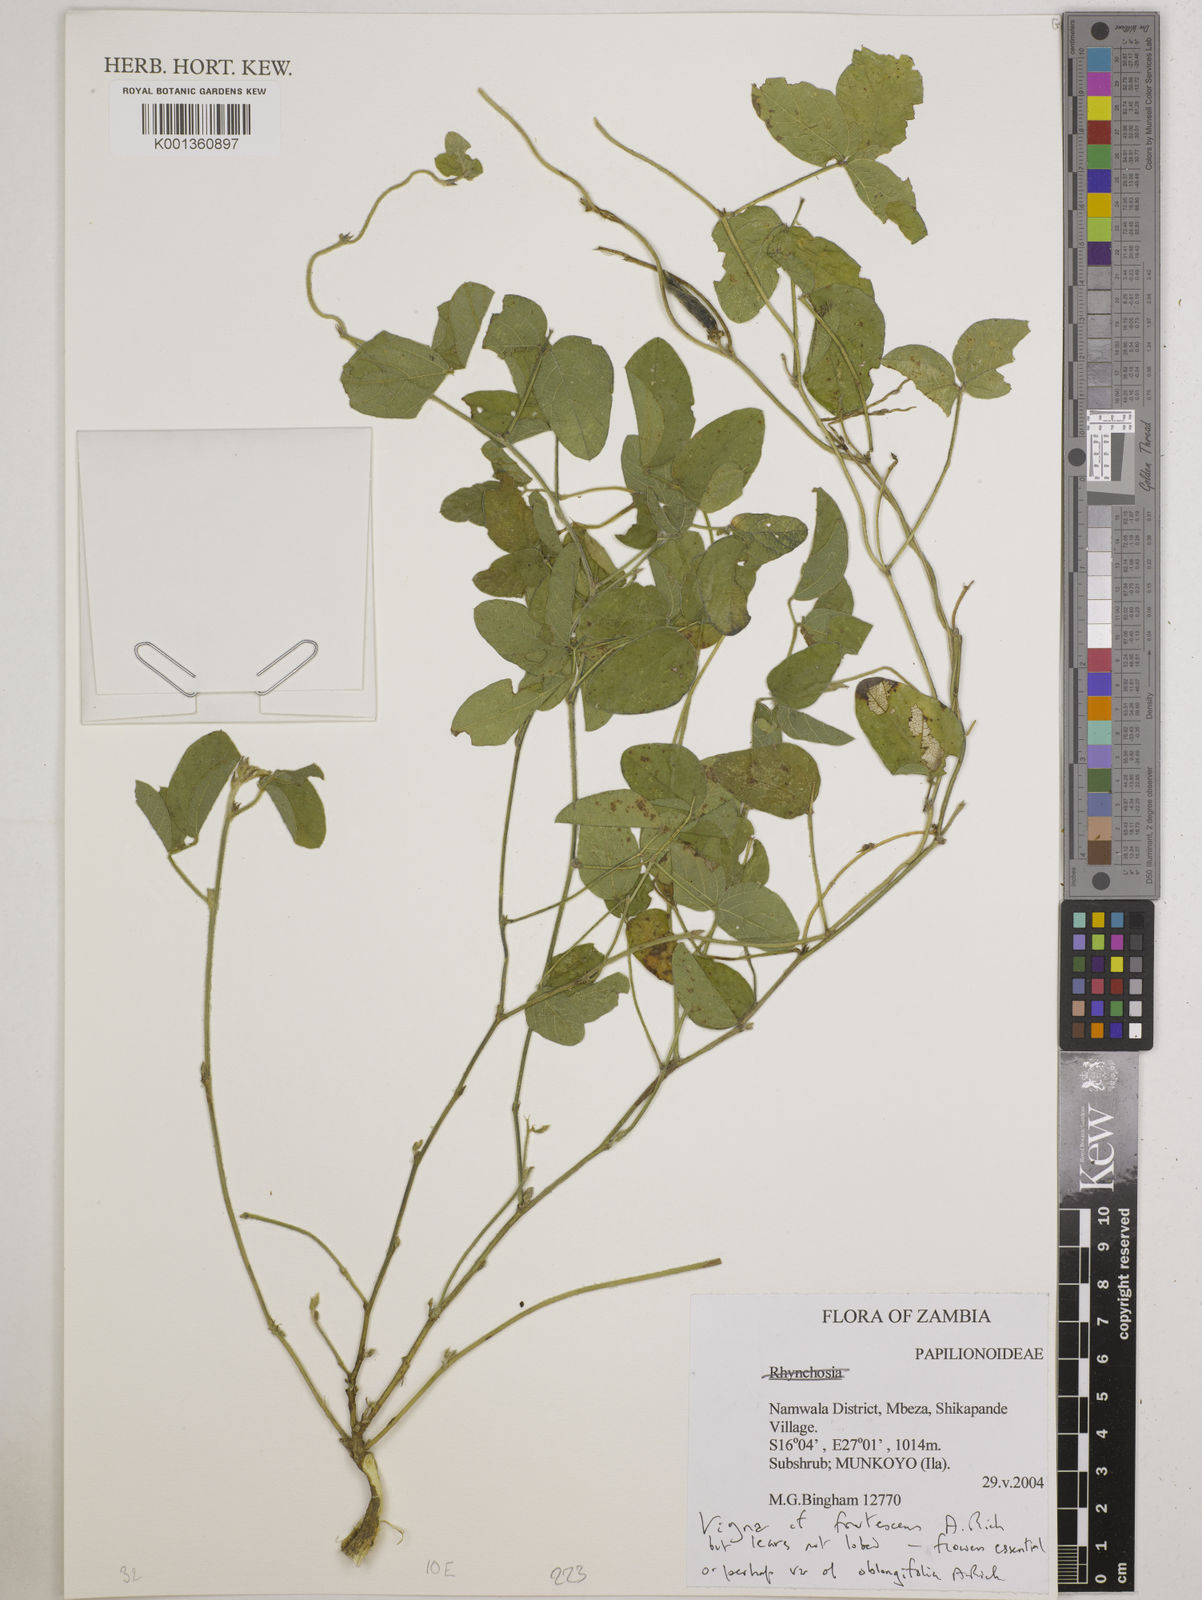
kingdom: Plantae
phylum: Tracheophyta
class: Magnoliopsida
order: Fabales
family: Fabaceae
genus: Vigna
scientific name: Vigna frutescens
